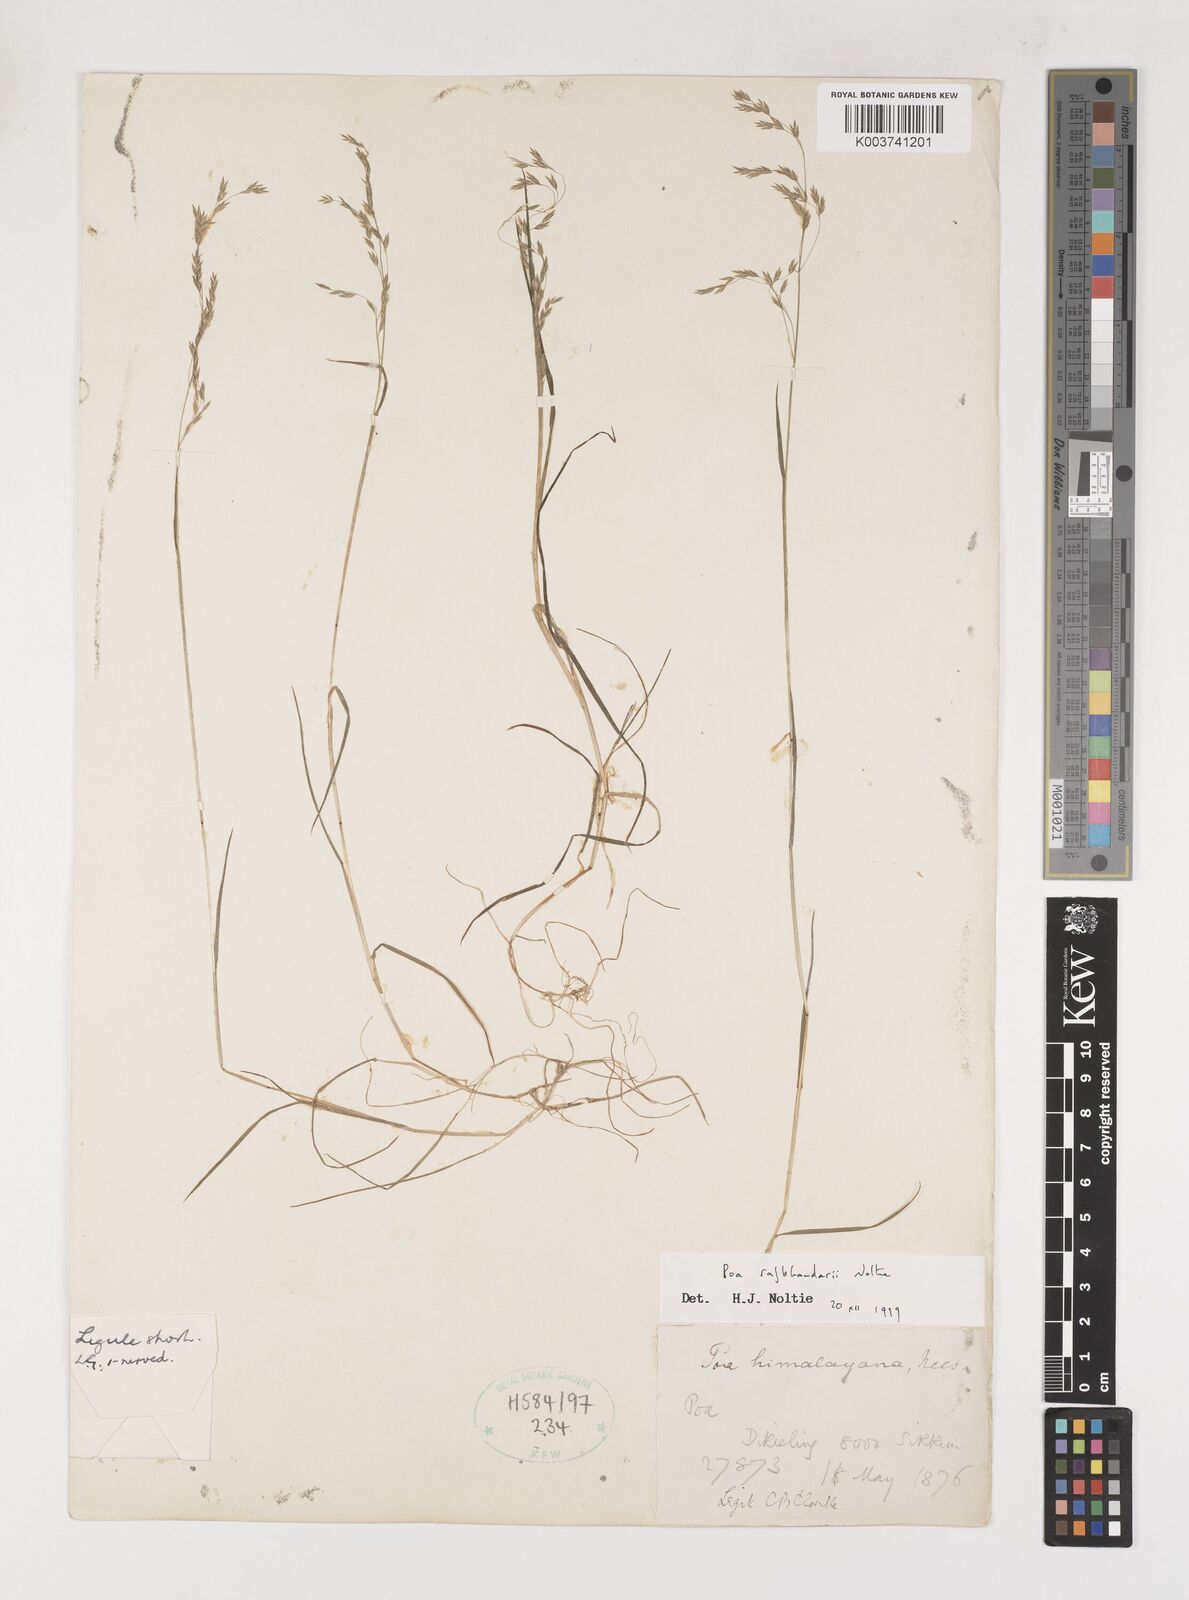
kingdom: Plantae
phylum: Tracheophyta
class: Liliopsida
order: Poales
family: Poaceae
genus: Poa
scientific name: Poa rajbhandarii
